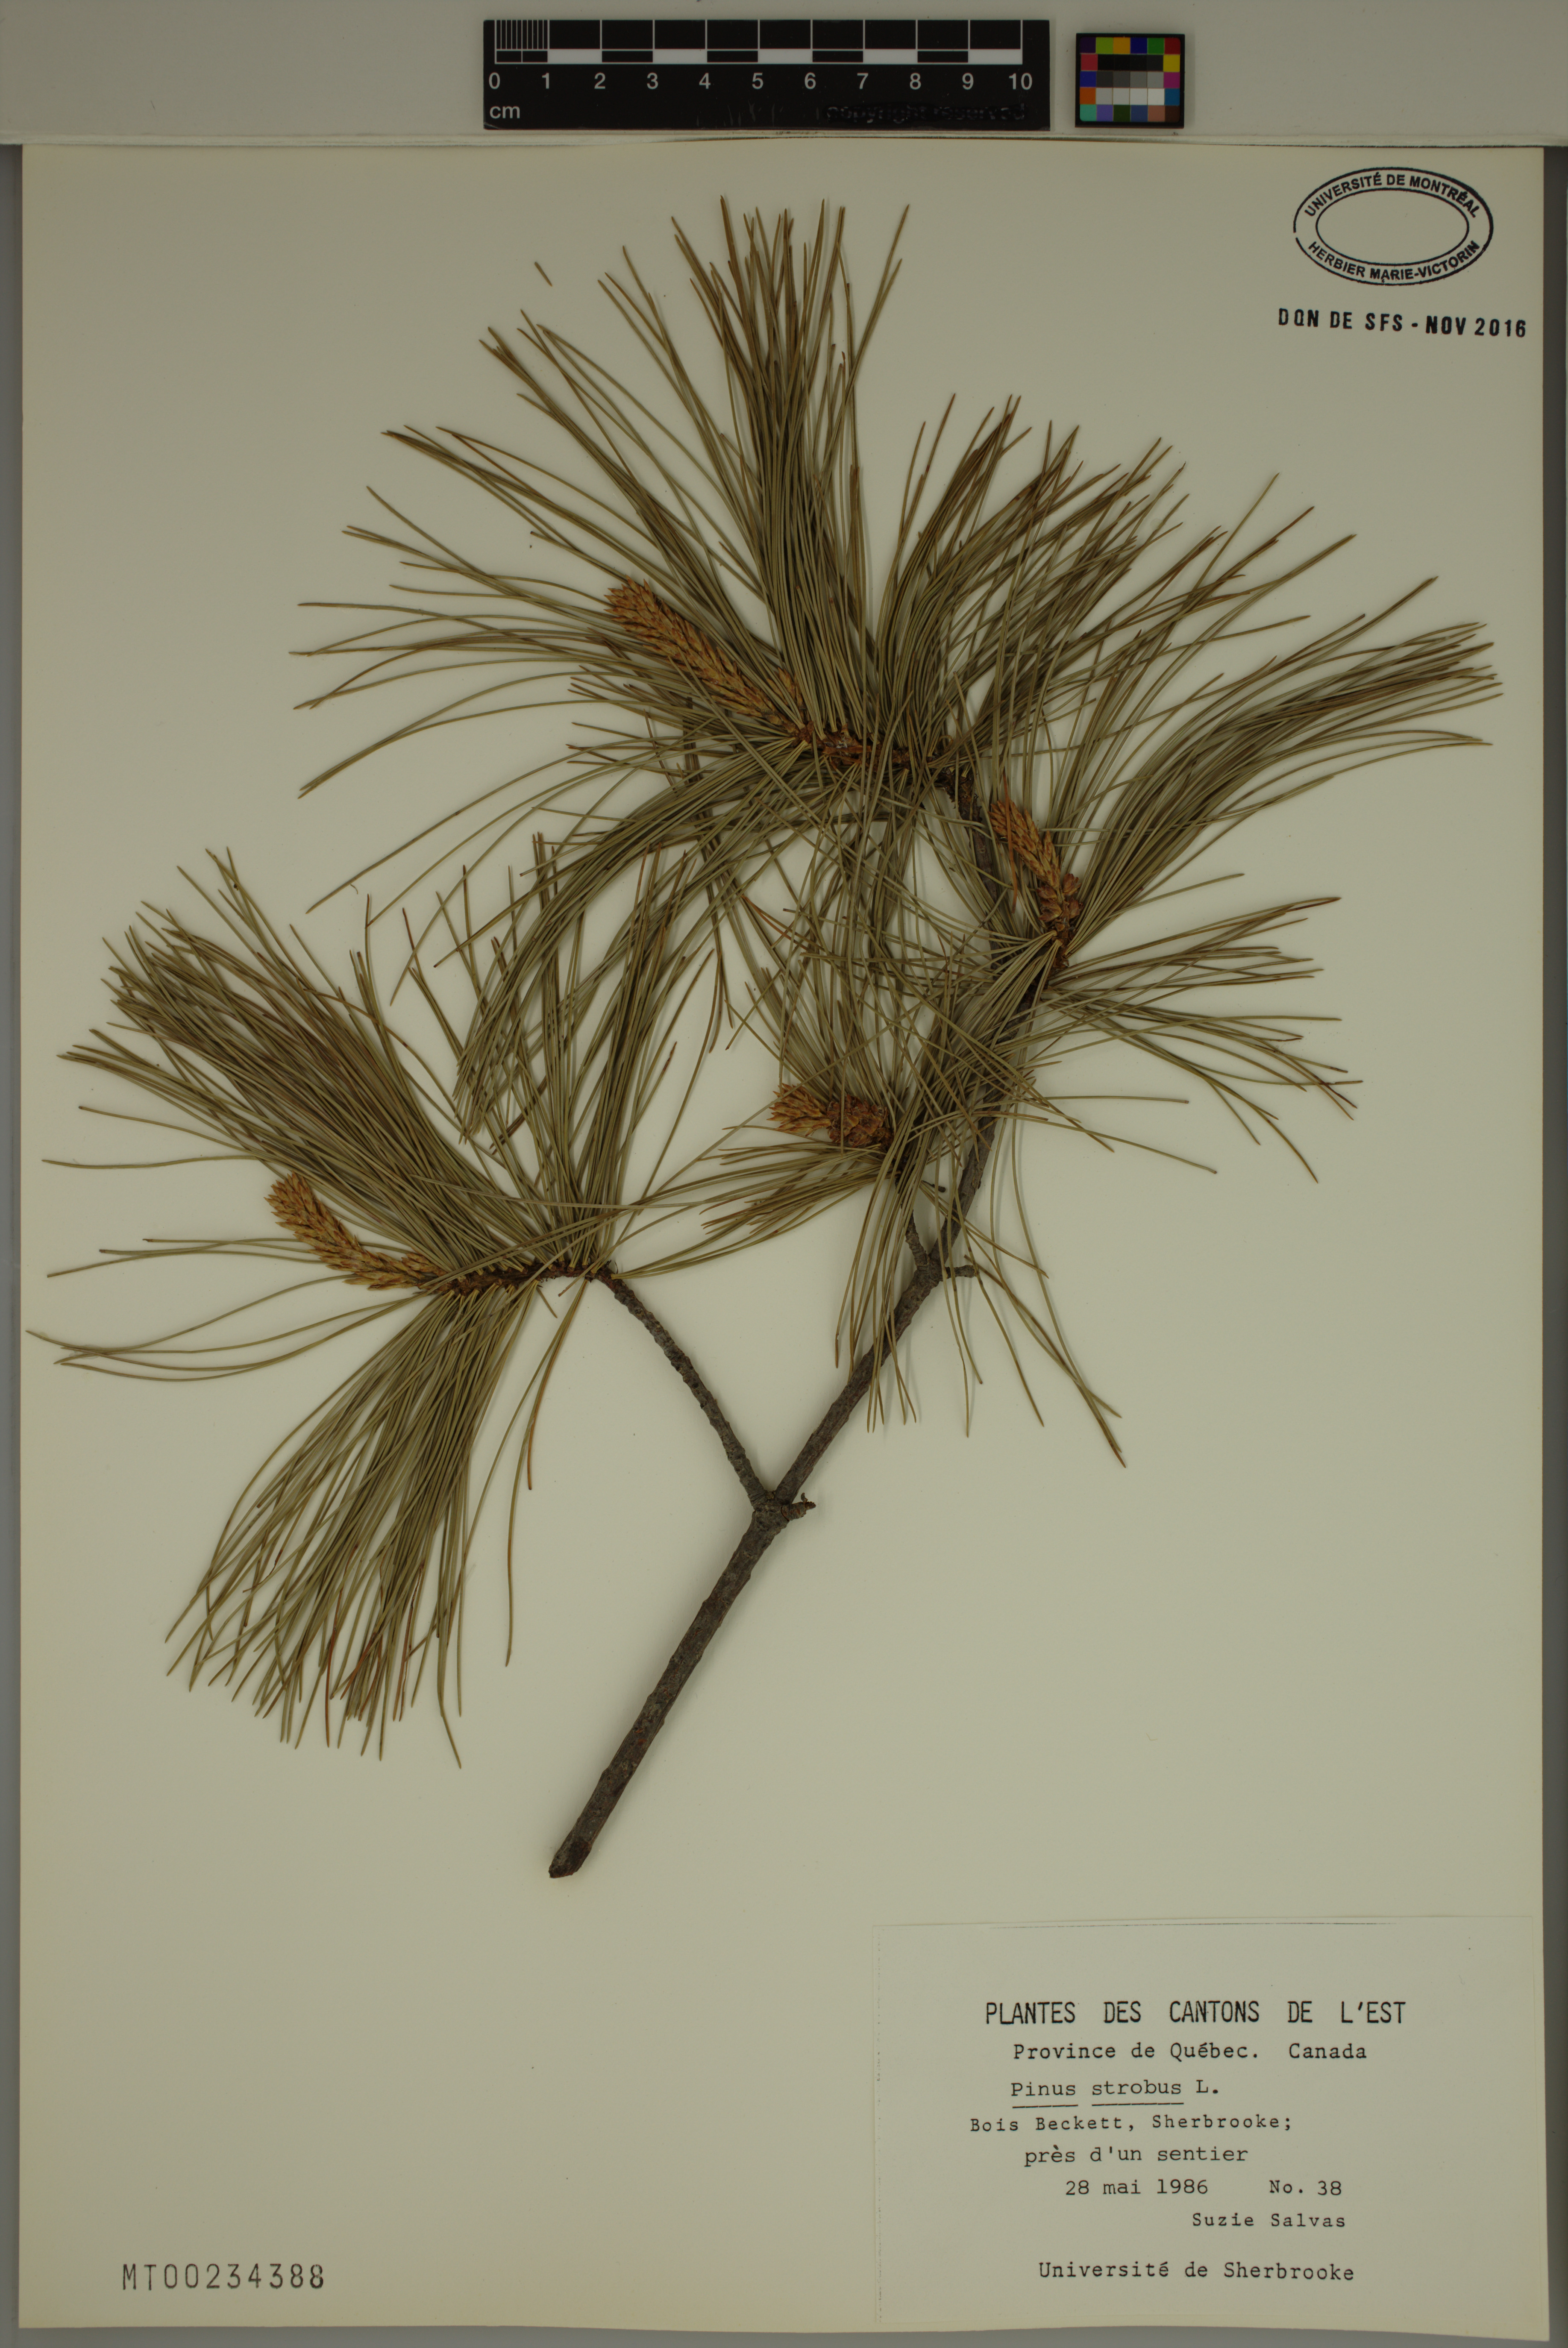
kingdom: Plantae
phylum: Tracheophyta
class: Pinopsida
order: Pinales
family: Pinaceae
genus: Pinus
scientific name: Pinus strobus
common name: Weymouth pine
